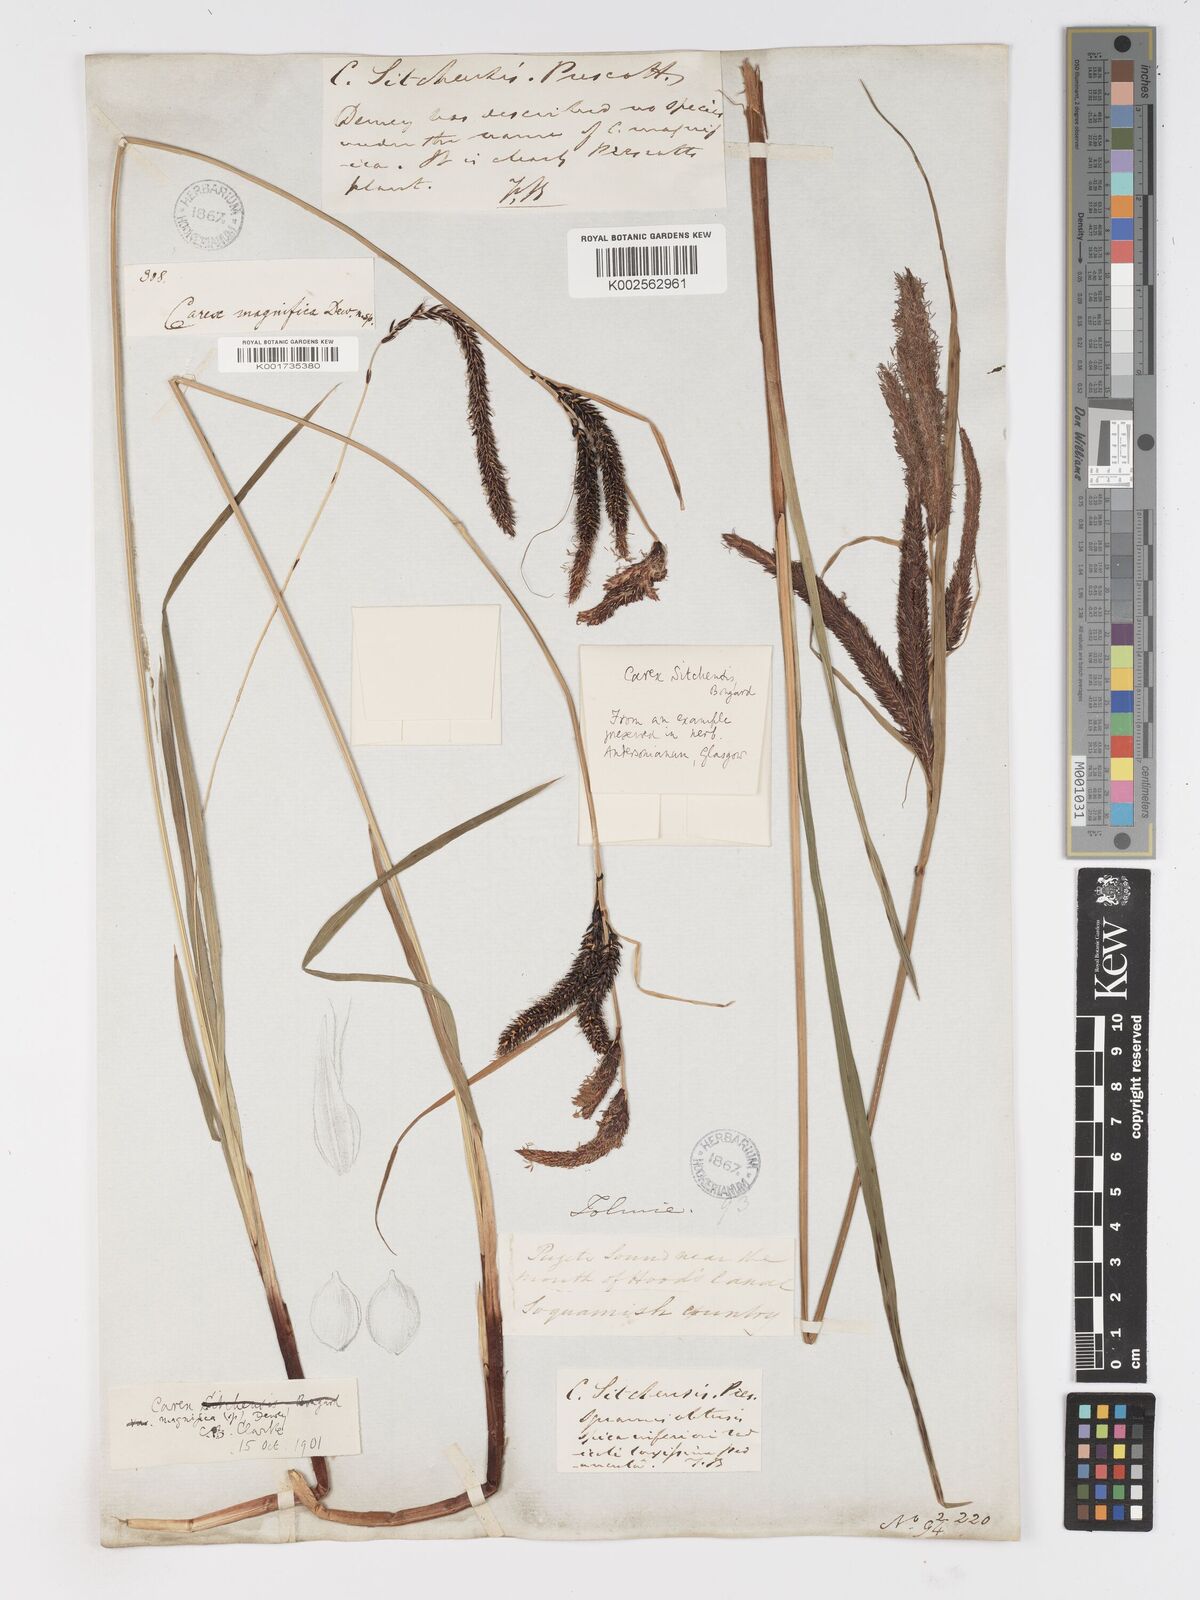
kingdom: Plantae
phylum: Tracheophyta
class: Liliopsida
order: Poales
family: Cyperaceae
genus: Carex
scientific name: Carex obnupta
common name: Slough sedge
